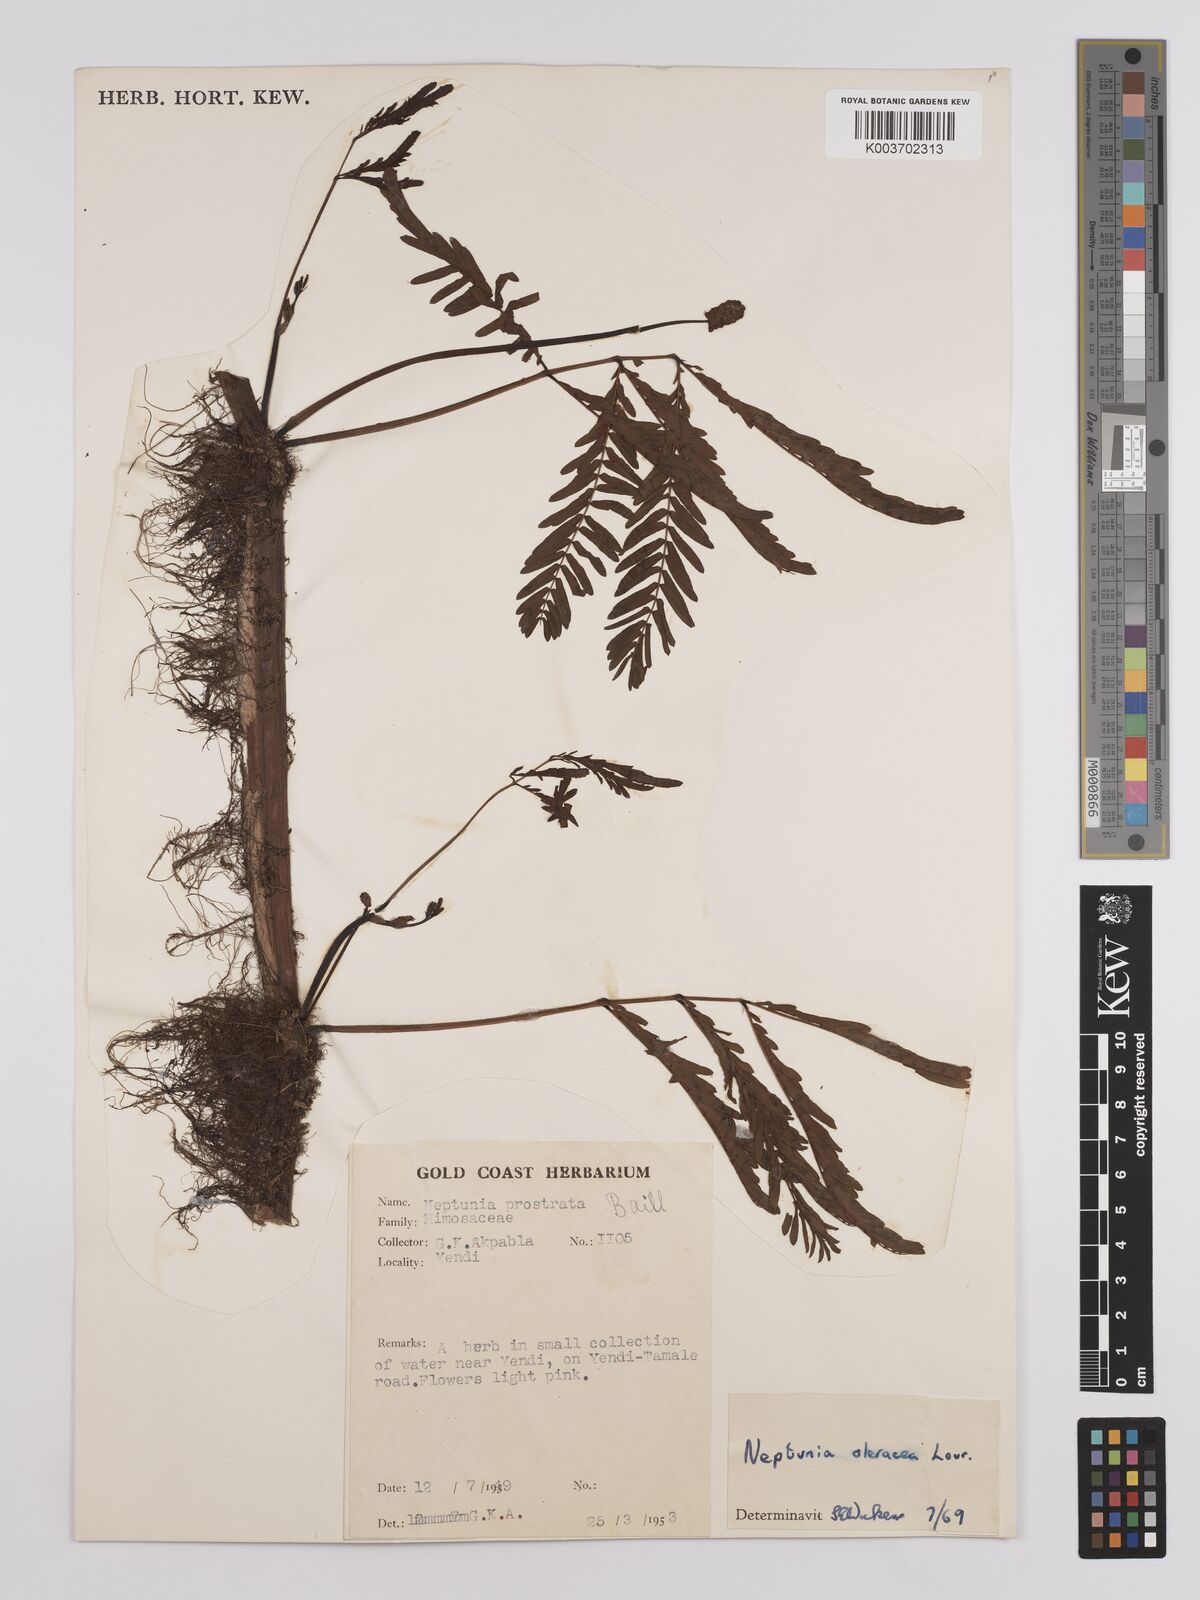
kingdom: Plantae
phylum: Tracheophyta
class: Magnoliopsida
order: Fabales
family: Fabaceae
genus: Neptunia
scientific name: Neptunia prostrata
